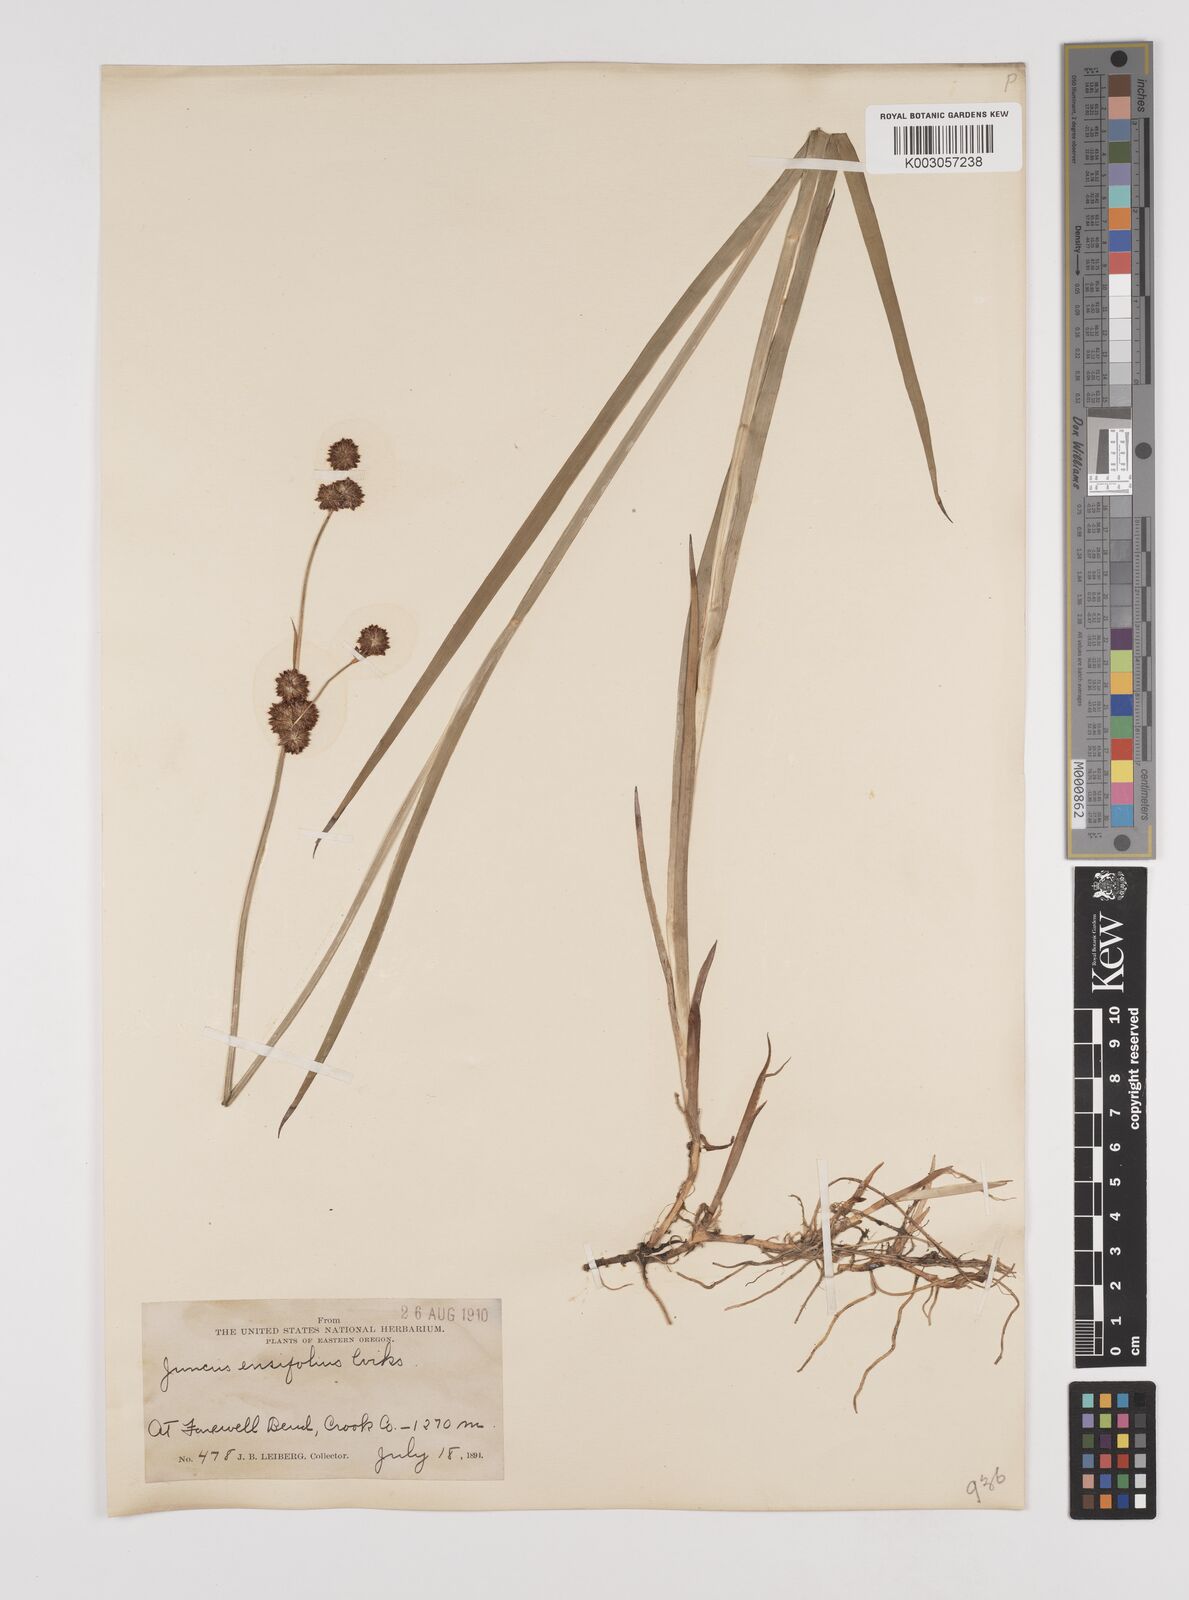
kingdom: Plantae
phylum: Tracheophyta
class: Liliopsida
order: Poales
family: Juncaceae
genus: Juncus
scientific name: Juncus ensifolius
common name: Sword-leaved rush
